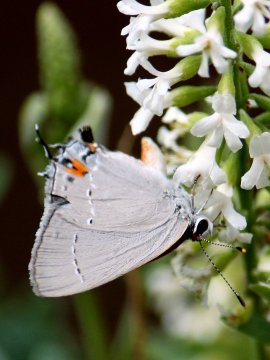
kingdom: Animalia
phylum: Arthropoda
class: Insecta
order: Lepidoptera
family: Lycaenidae
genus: Strymon
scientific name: Strymon melinus
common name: Gray Hairstreak
